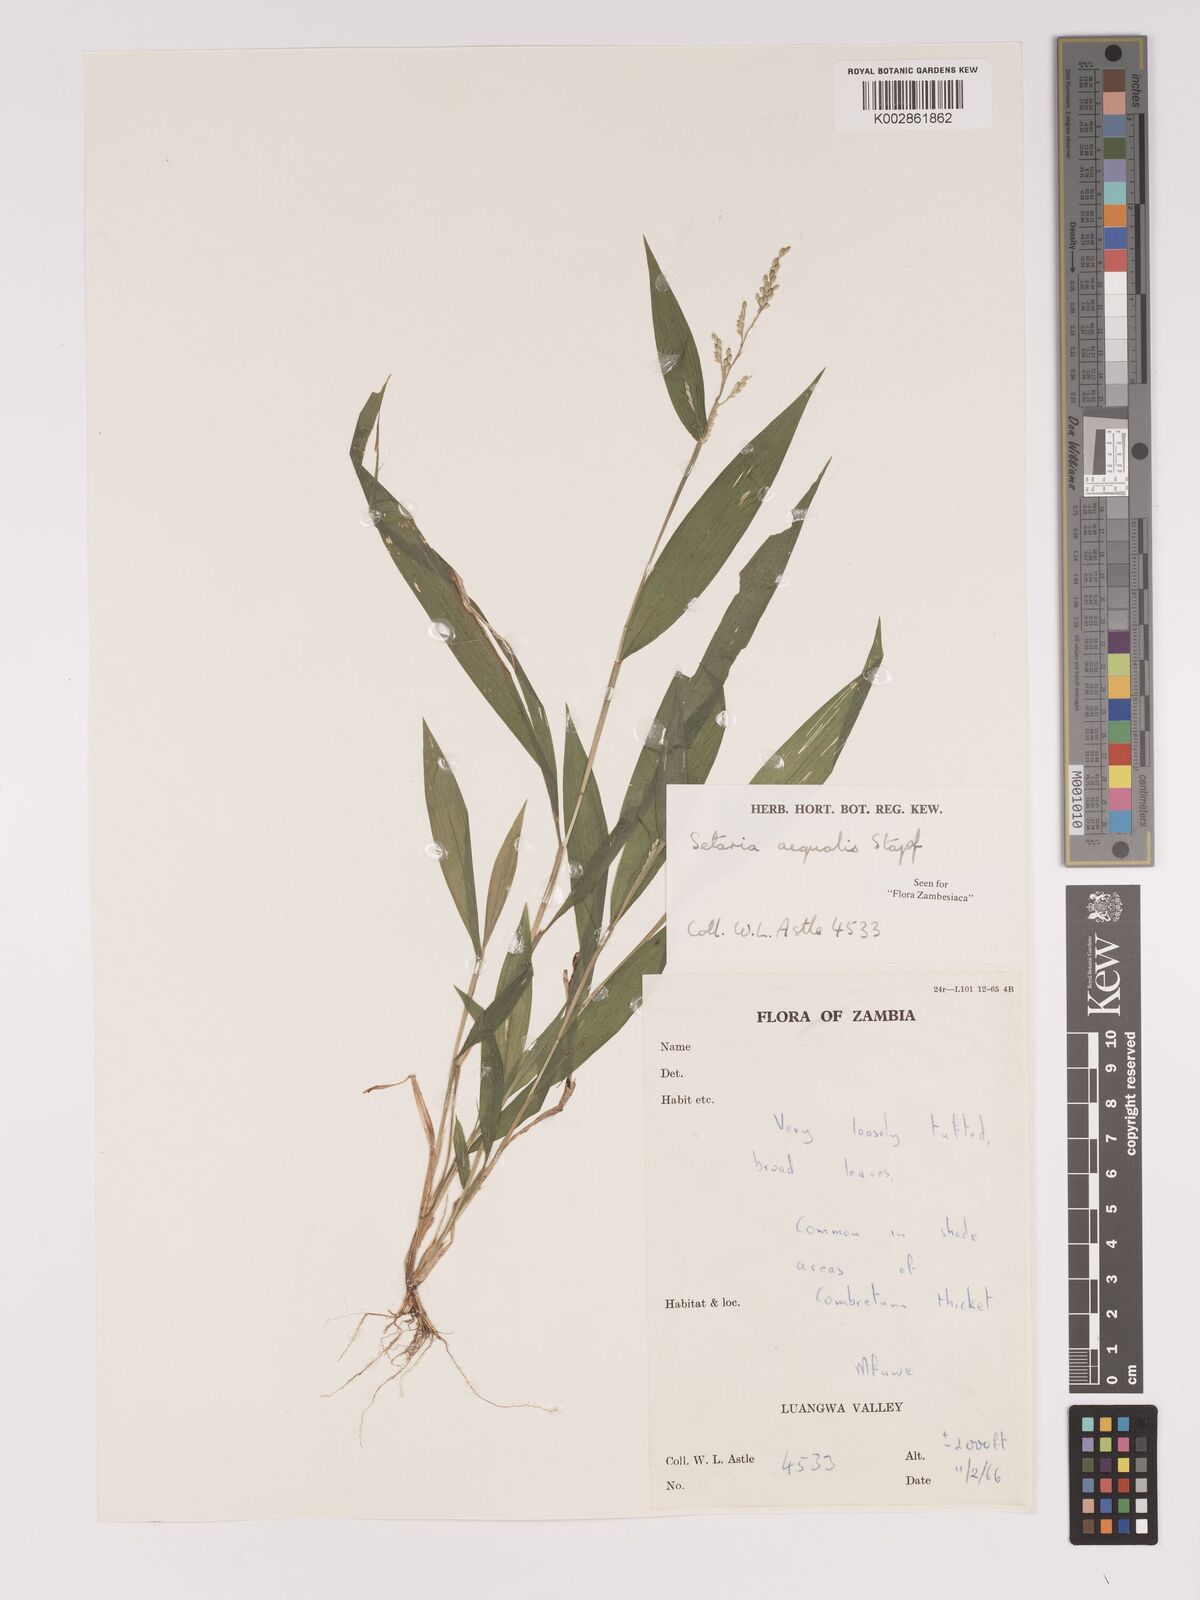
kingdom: Plantae
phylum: Tracheophyta
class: Liliopsida
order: Poales
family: Poaceae
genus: Setaria
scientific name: Setaria homonyma
